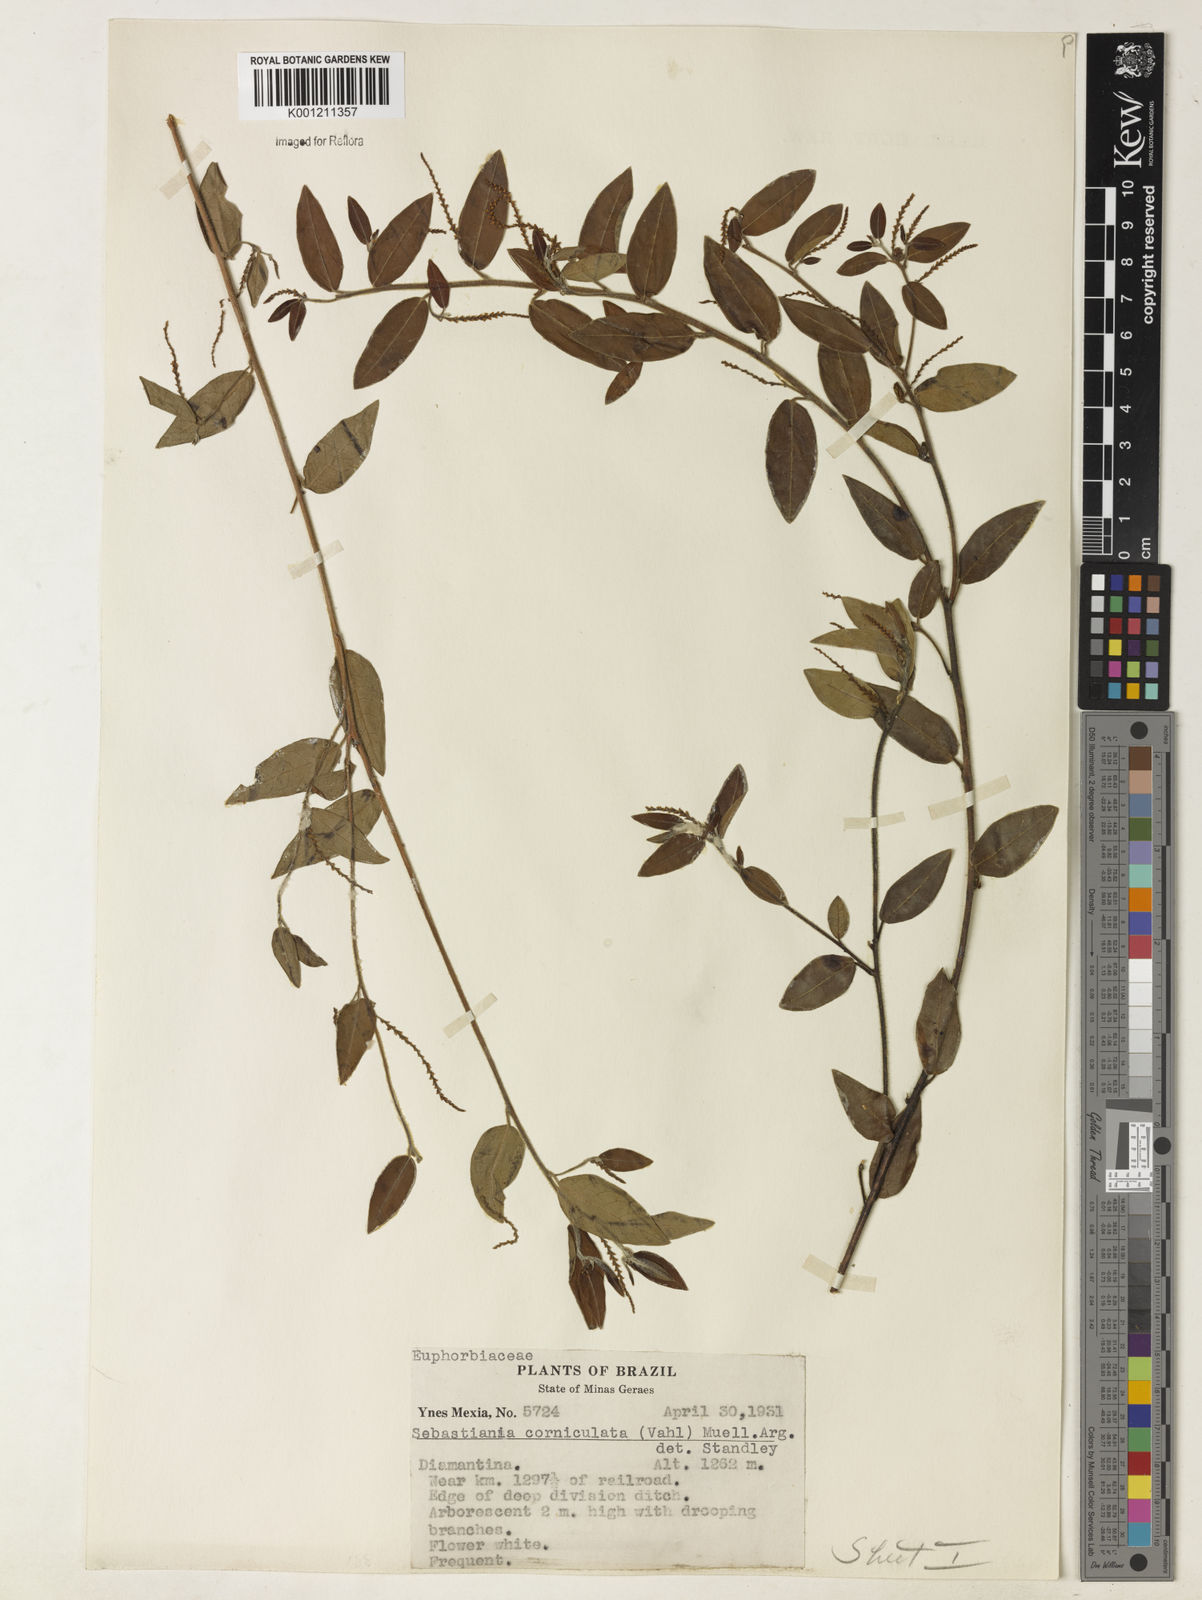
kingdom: Plantae
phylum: Tracheophyta
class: Magnoliopsida
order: Malpighiales
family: Euphorbiaceae
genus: Microstachys
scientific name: Microstachys corniculata
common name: Hato tejas
